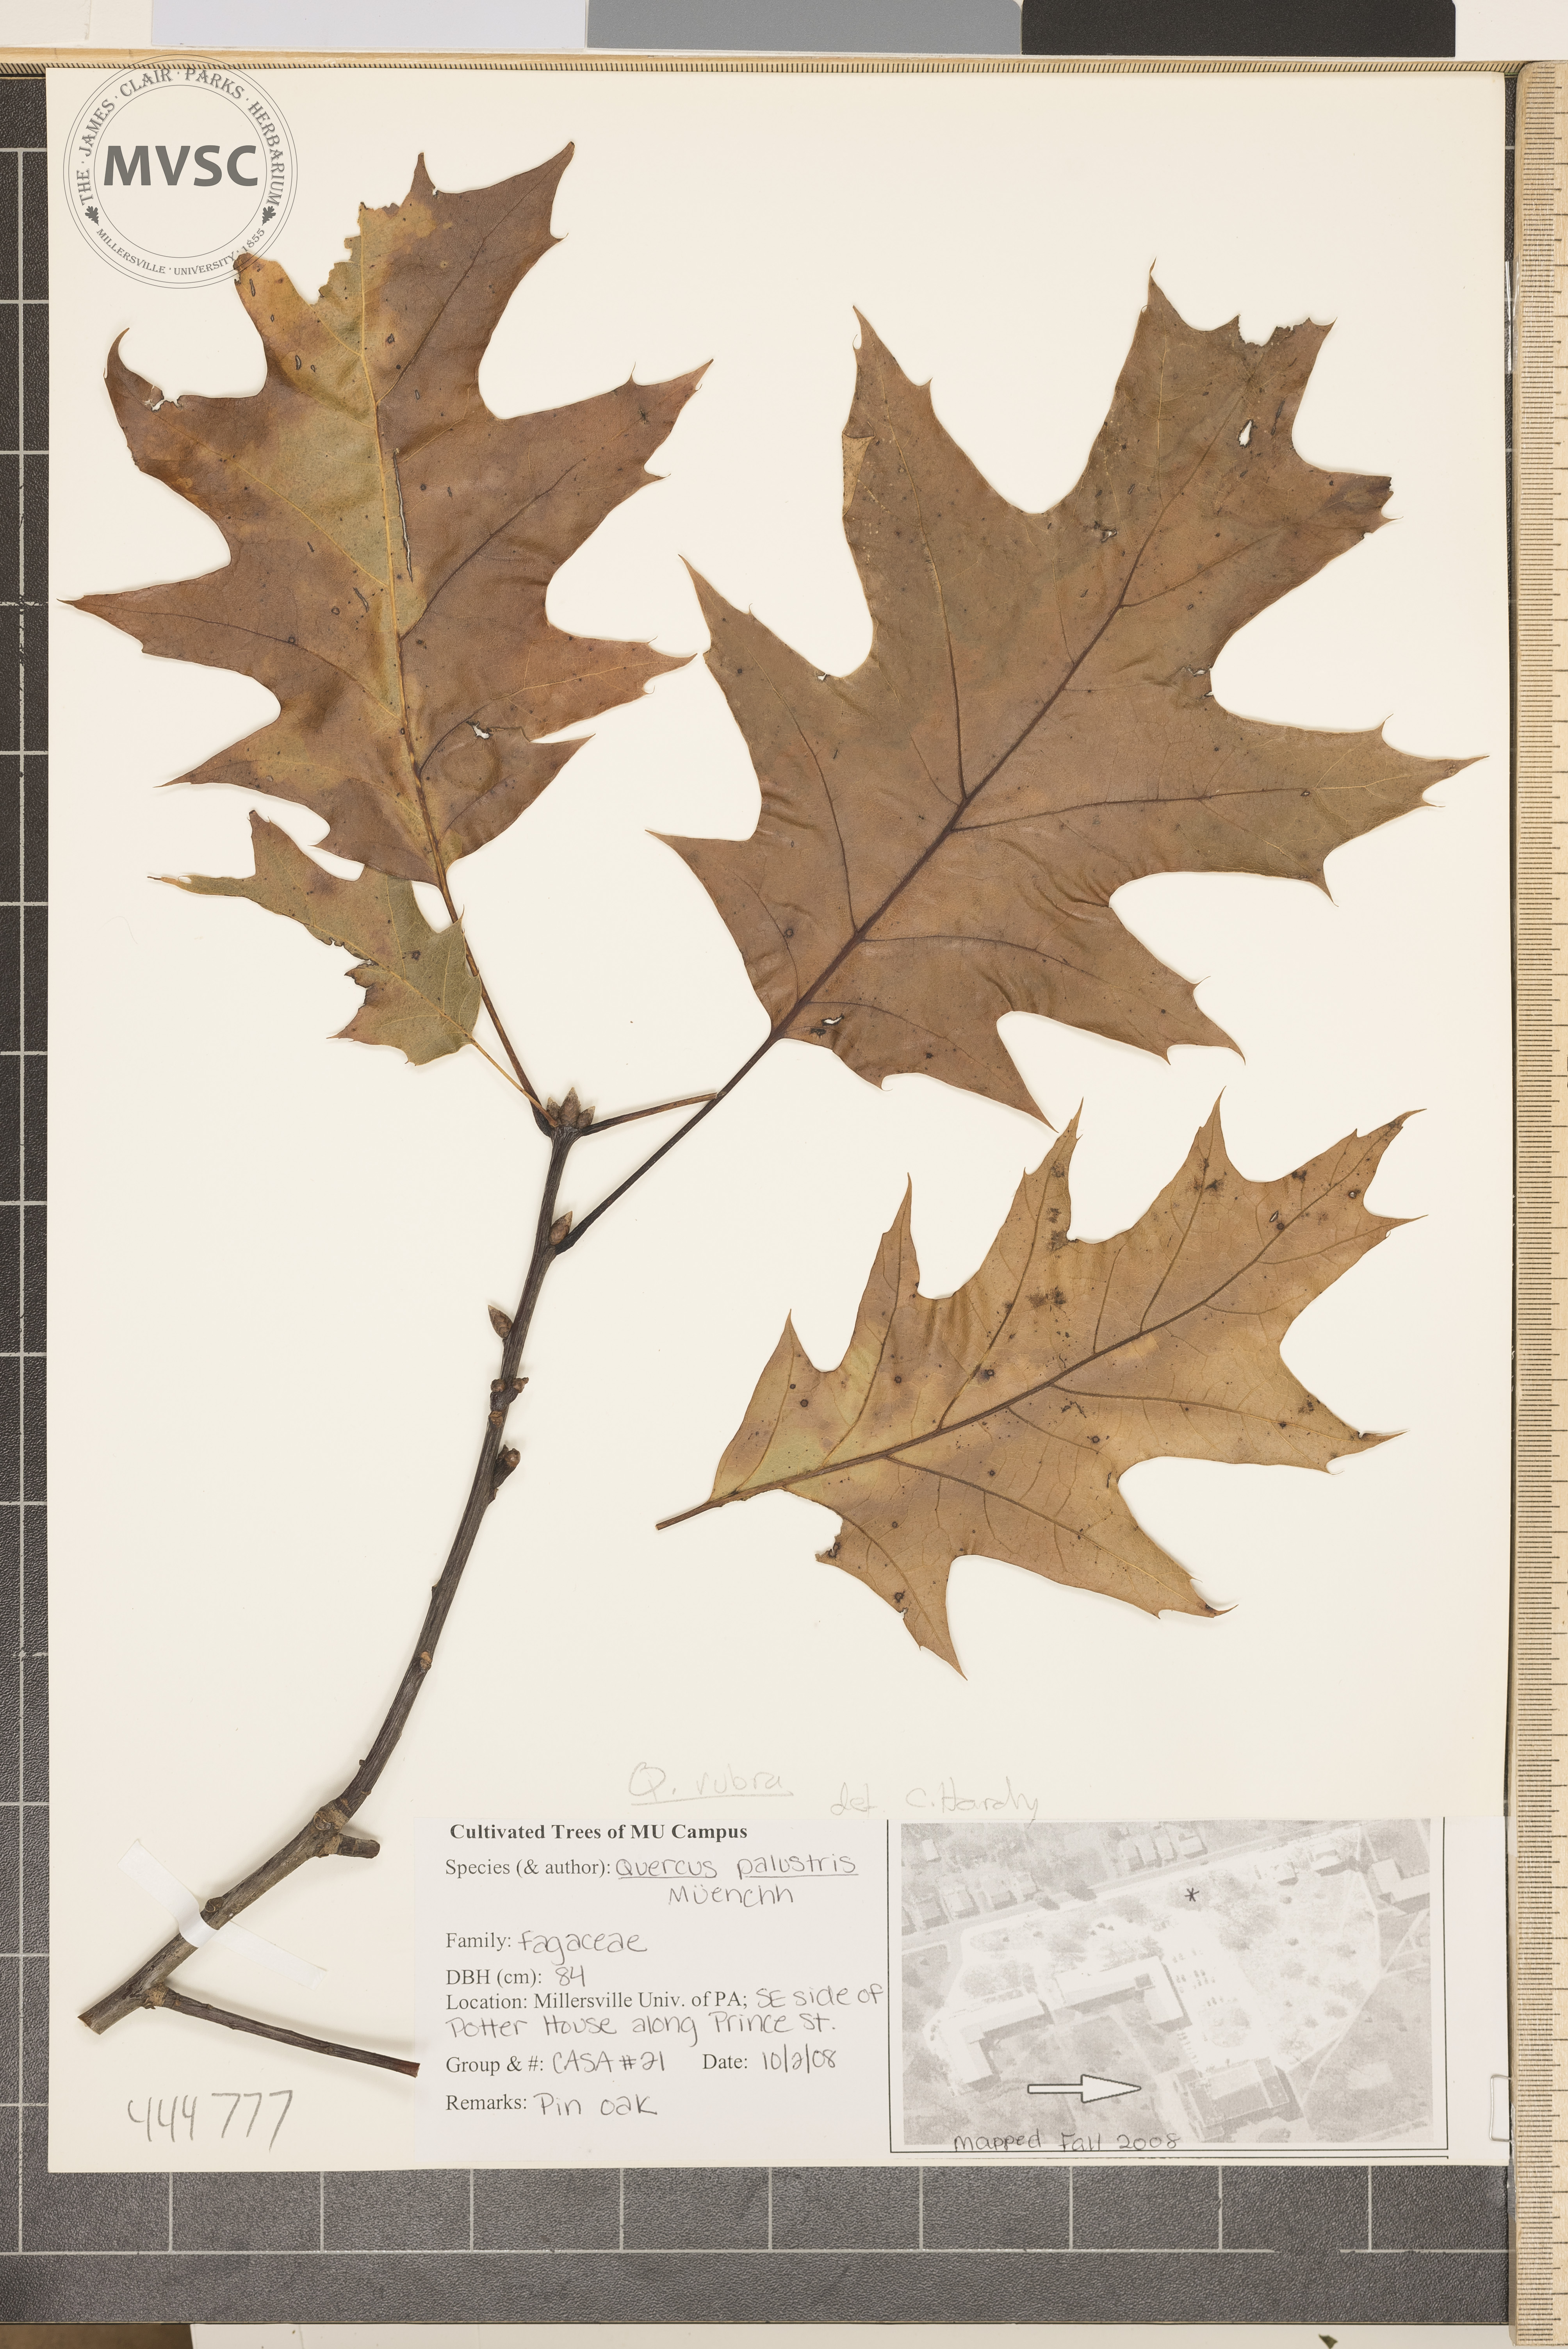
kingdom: Plantae
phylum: Tracheophyta
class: Magnoliopsida
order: Fagales
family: Fagaceae
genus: Quercus
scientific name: Quercus rubra
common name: Red oak
